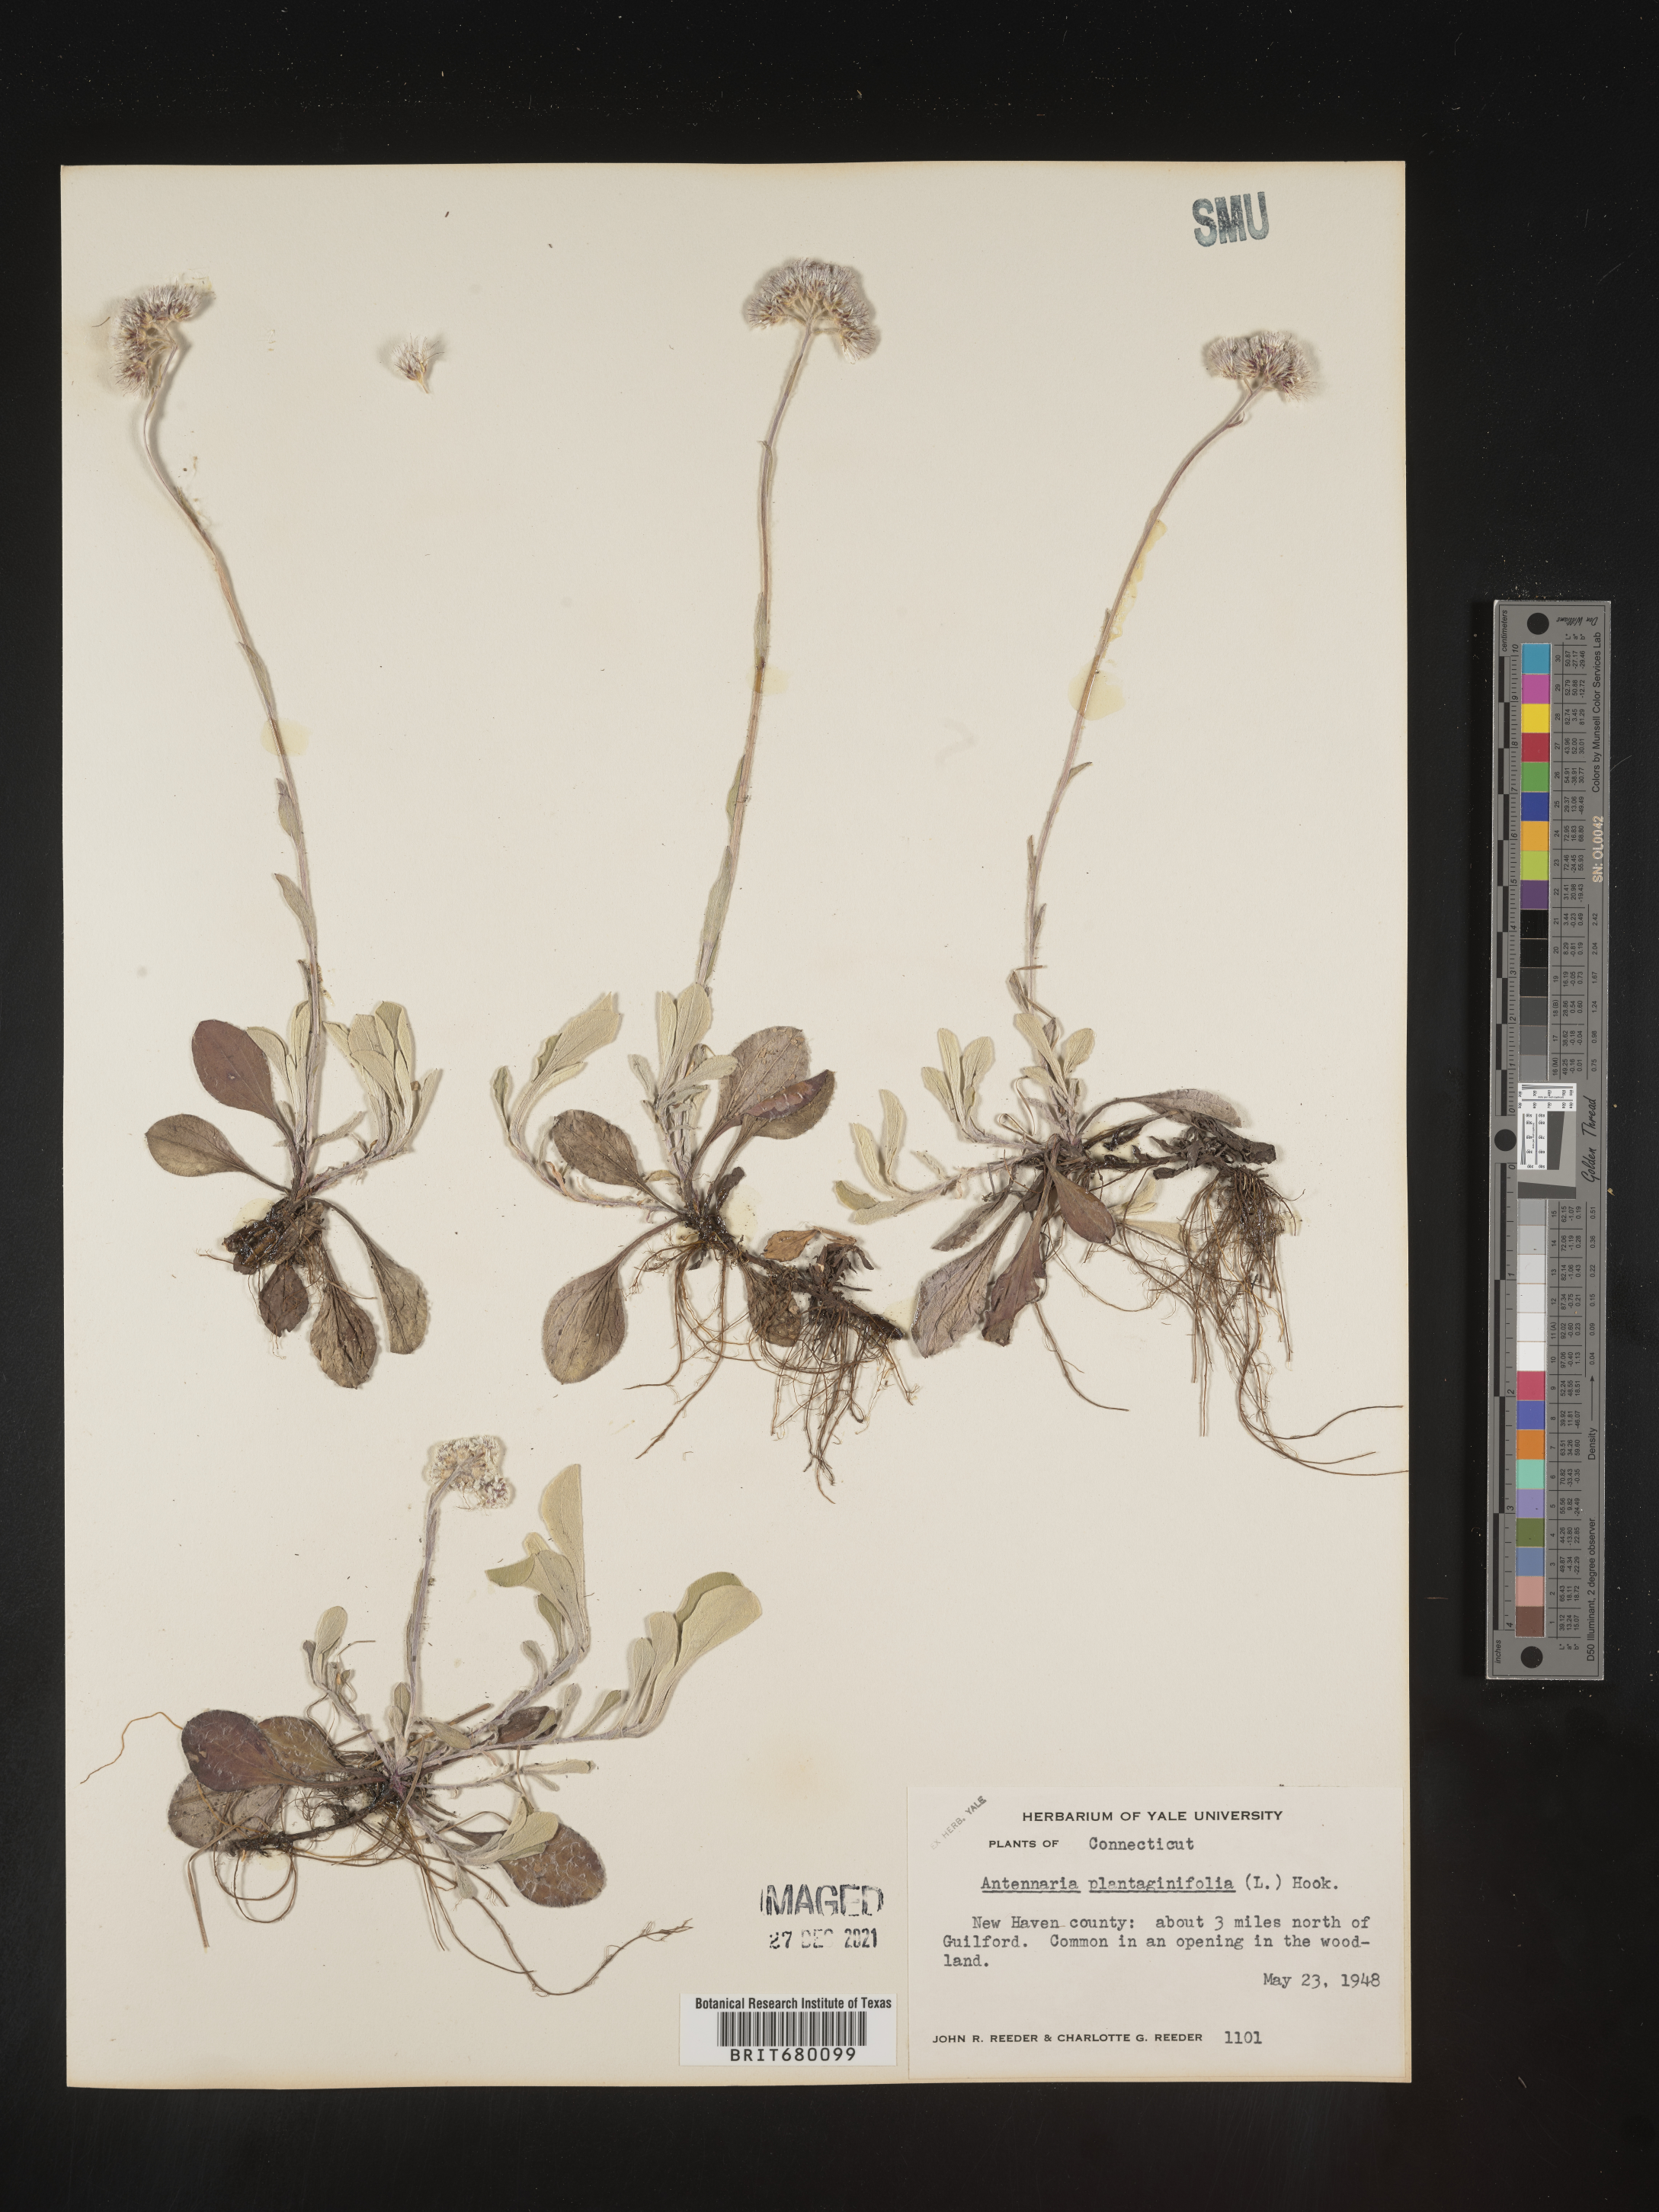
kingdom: Plantae
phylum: Tracheophyta
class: Magnoliopsida
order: Asterales
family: Asteraceae
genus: Antennaria
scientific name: Antennaria plantaginifolia
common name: Plantain-leaved pussytoes
